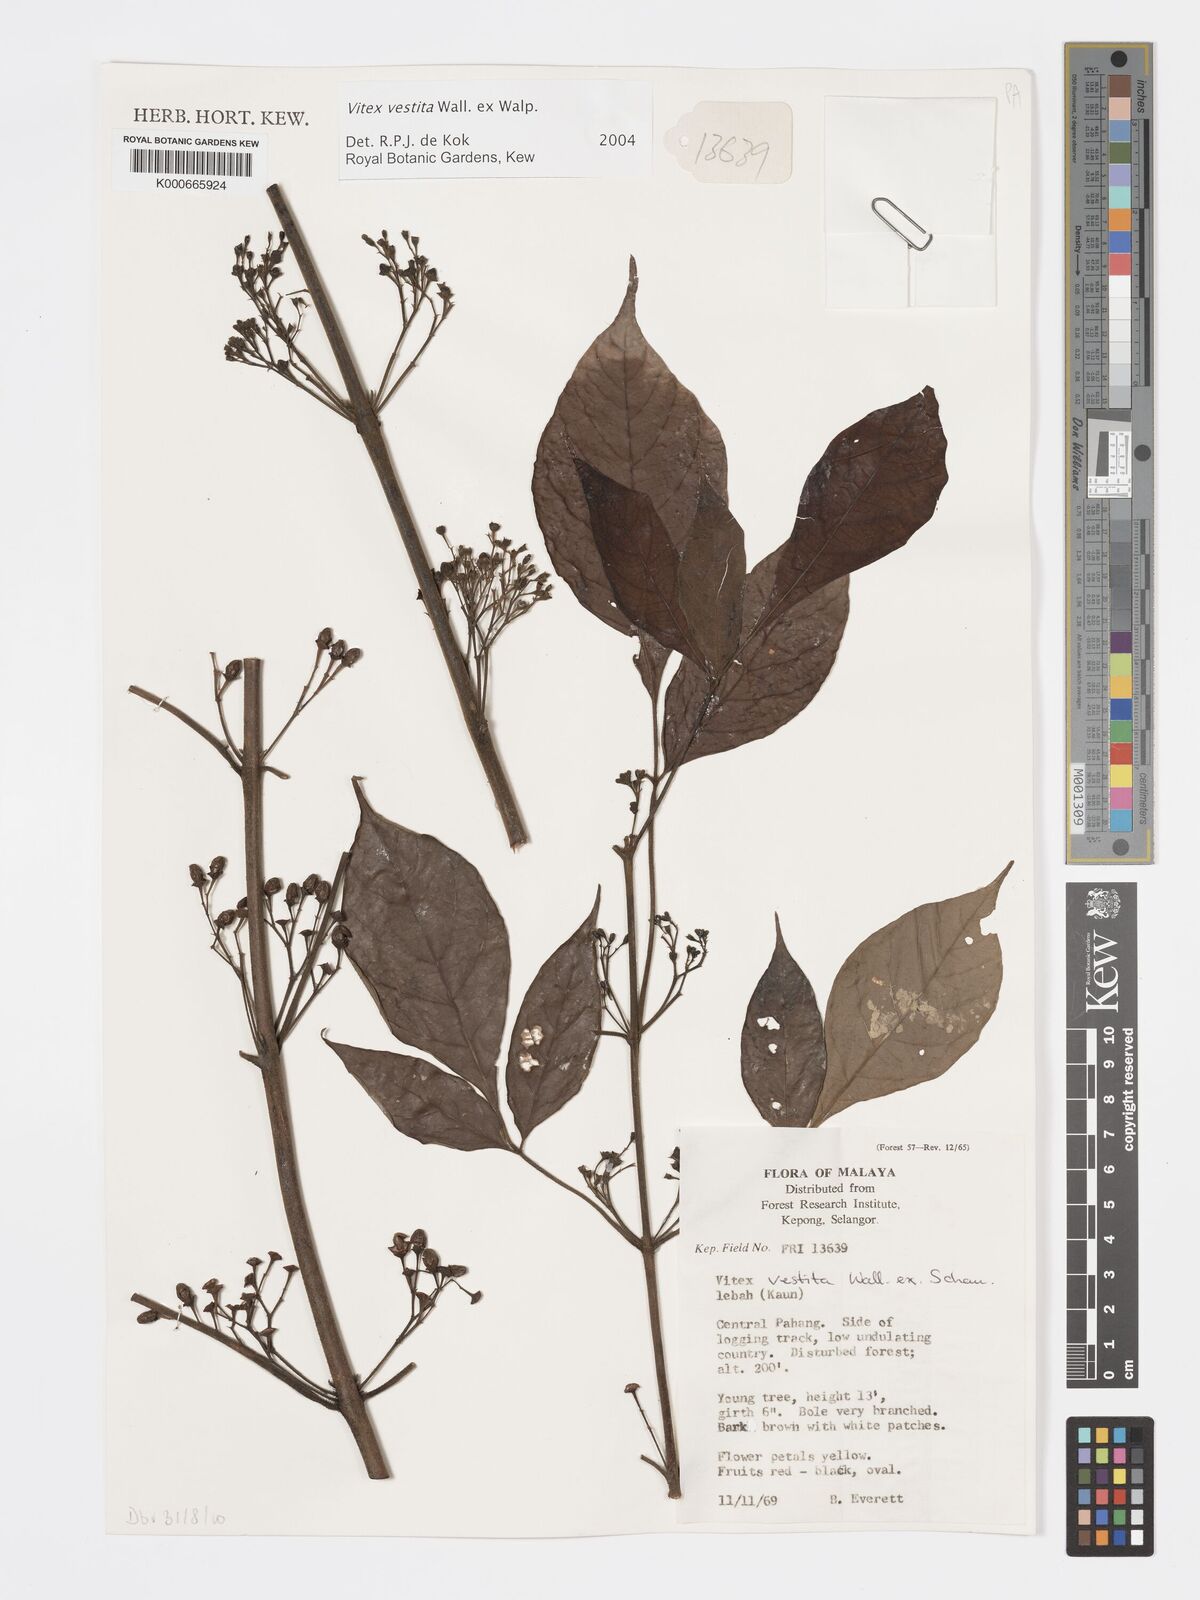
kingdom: Plantae
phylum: Tracheophyta
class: Magnoliopsida
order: Lamiales
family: Lamiaceae
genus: Vitex
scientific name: Vitex vestita
